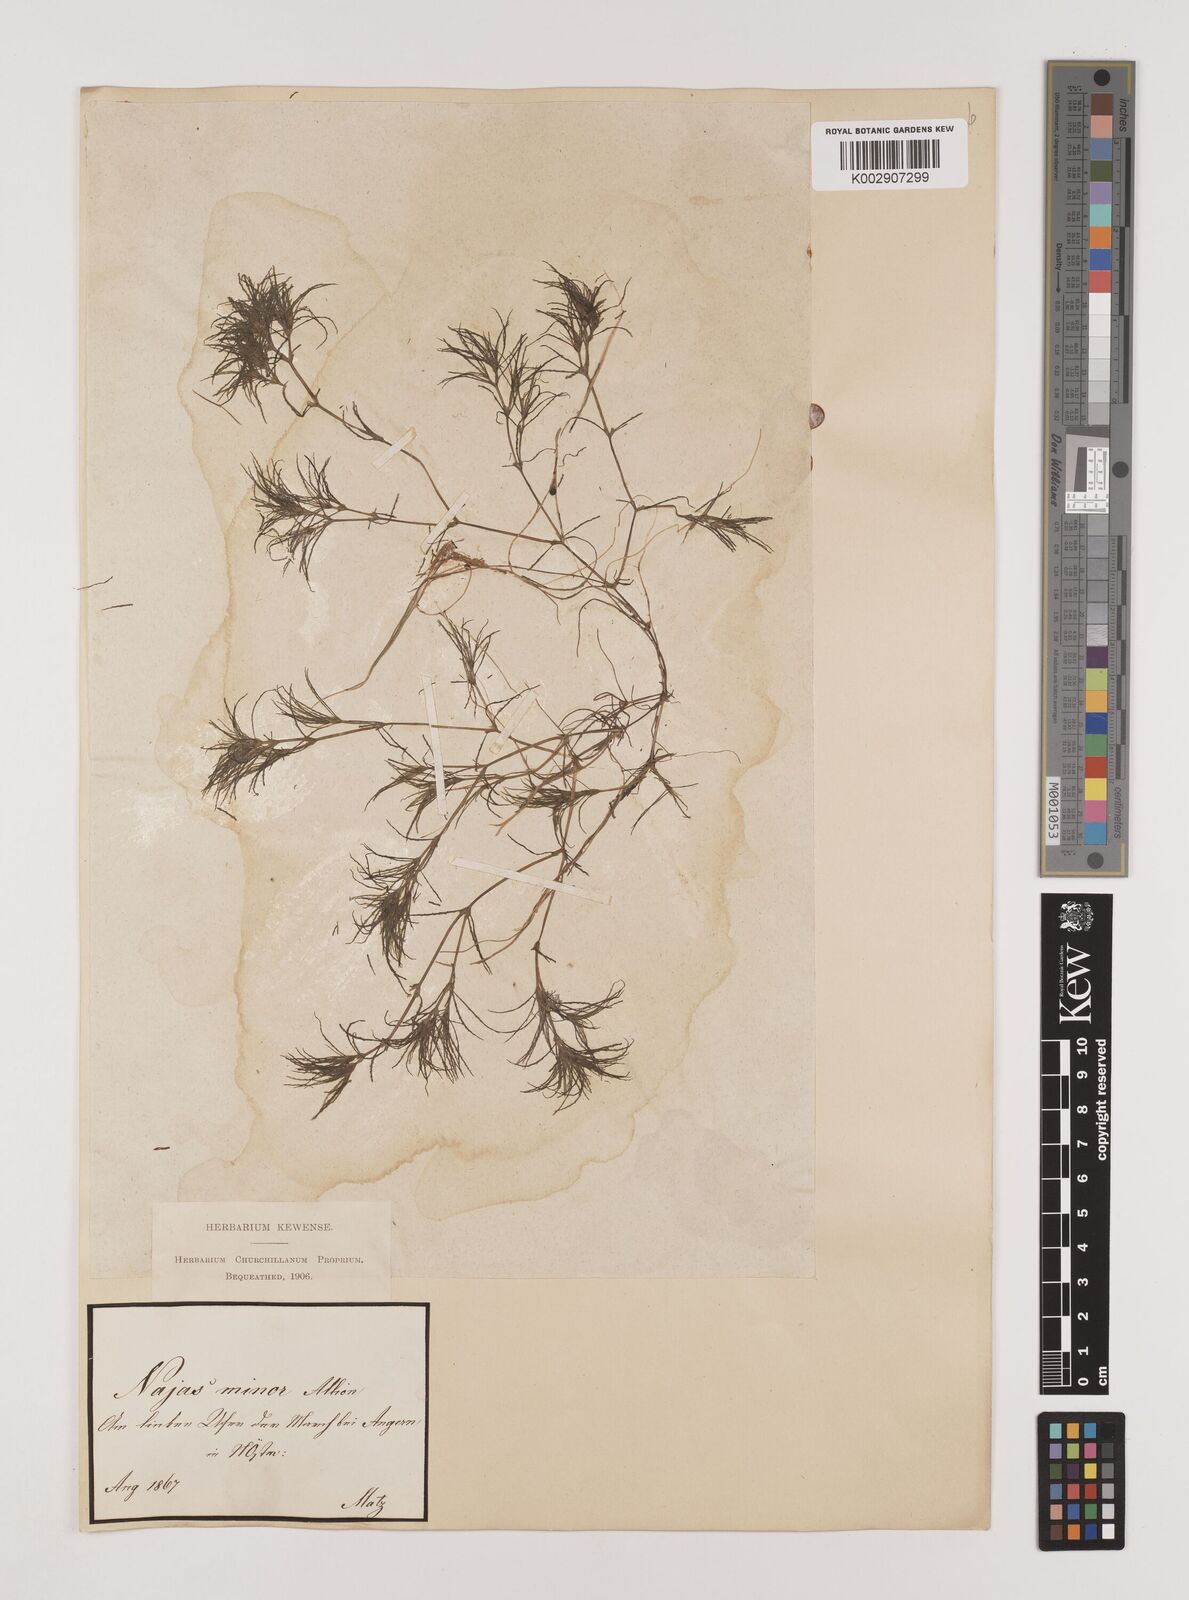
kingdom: Plantae
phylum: Tracheophyta
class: Liliopsida
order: Alismatales
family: Hydrocharitaceae
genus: Najas
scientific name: Najas minor
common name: Brittle naiad
